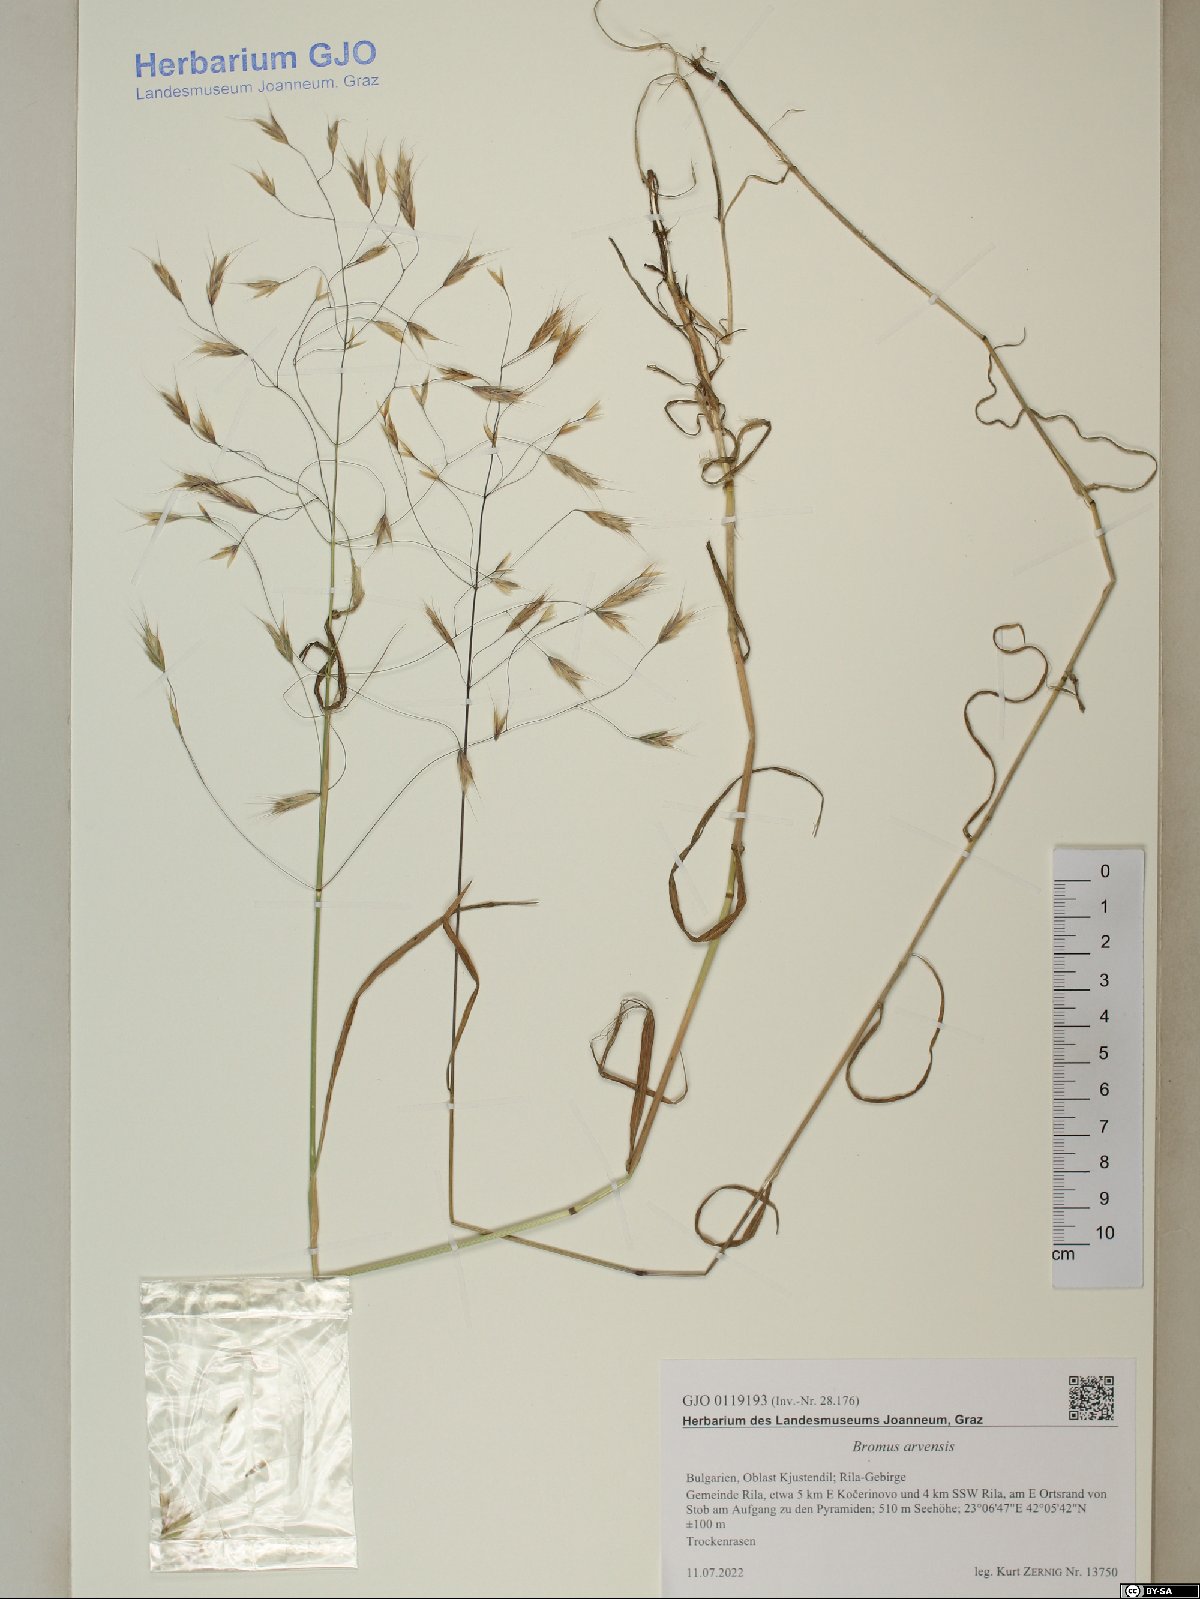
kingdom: Plantae
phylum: Tracheophyta
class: Liliopsida
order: Poales
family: Poaceae
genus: Bromus
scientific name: Bromus arvensis
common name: Field brome
